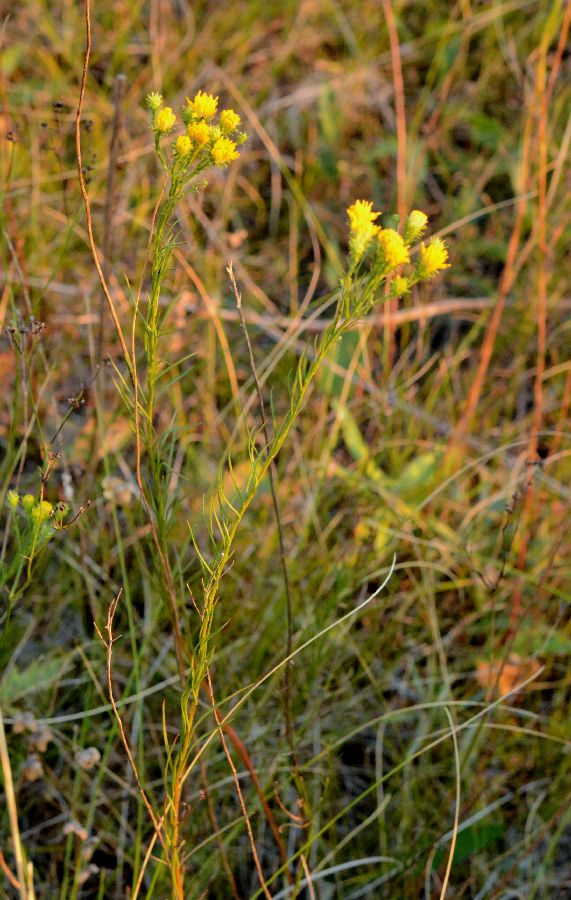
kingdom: Plantae
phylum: Tracheophyta
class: Magnoliopsida
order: Asterales
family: Asteraceae
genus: Galatella
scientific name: Galatella linosyris
